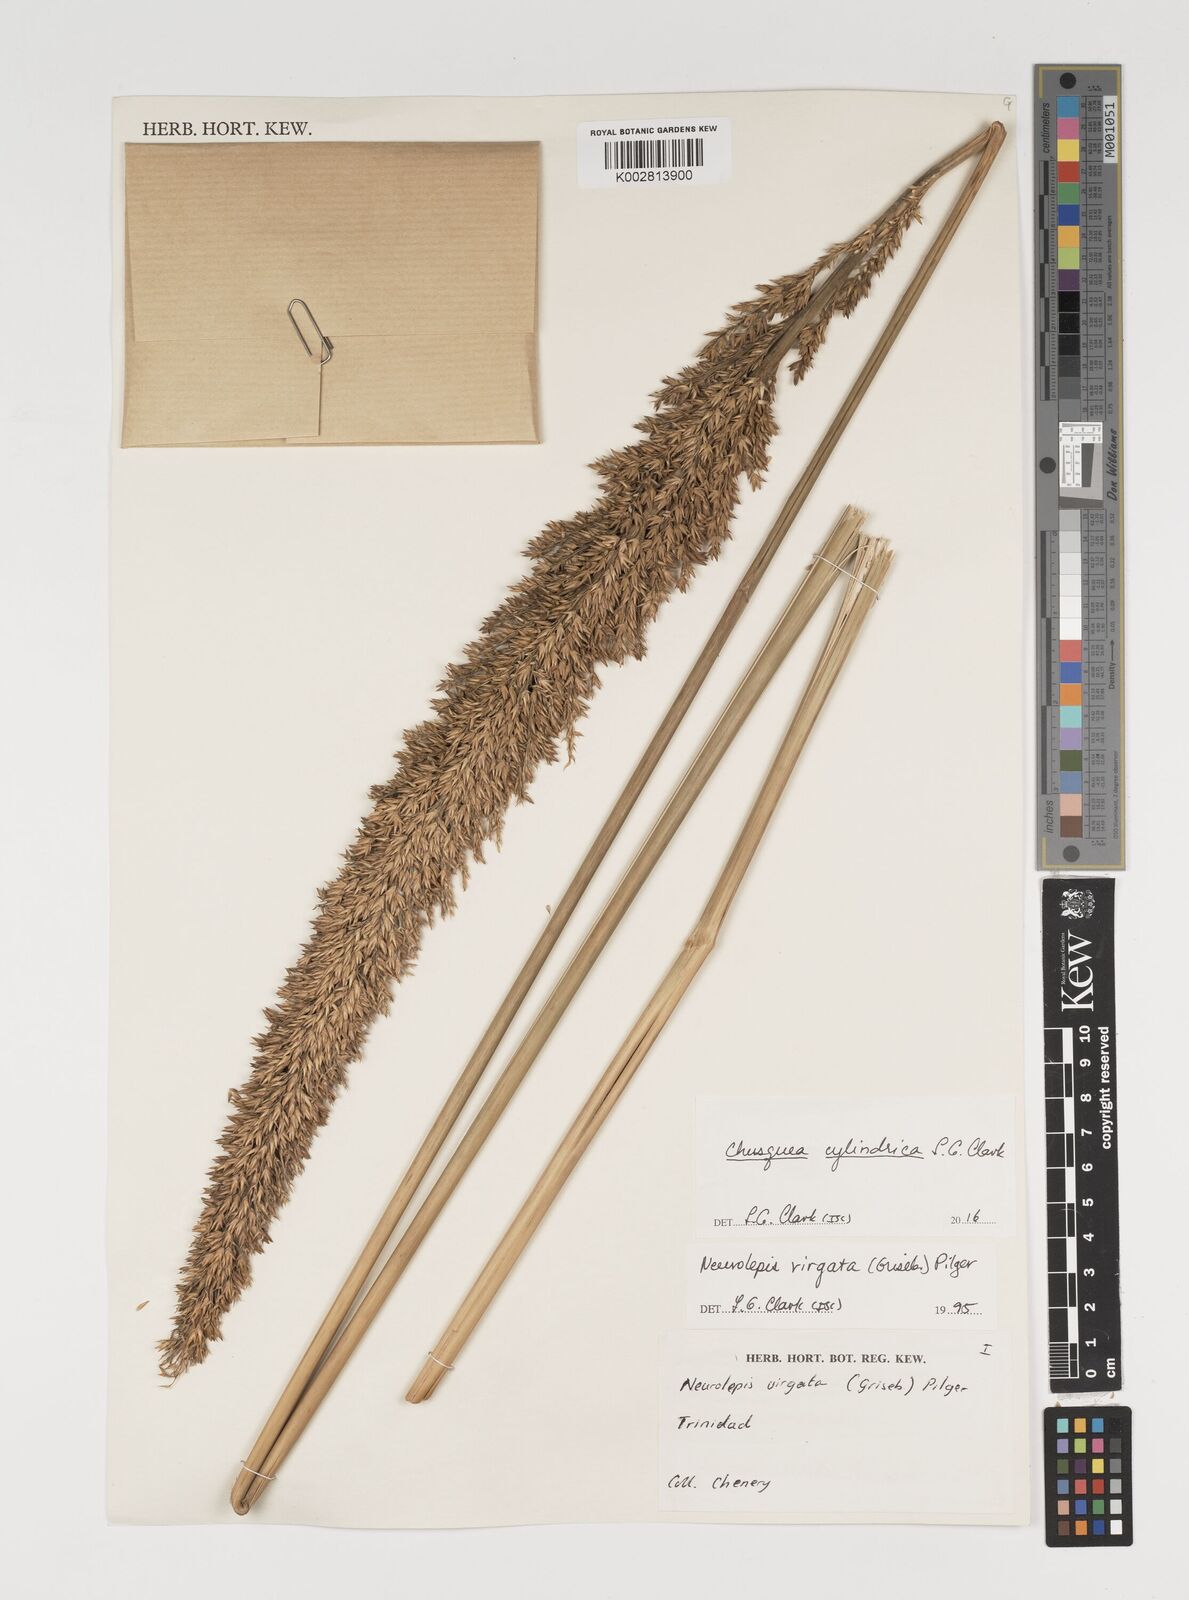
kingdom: Plantae
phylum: Tracheophyta
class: Liliopsida
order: Poales
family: Poaceae
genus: Chusquea
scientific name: Chusquea cylindrica
